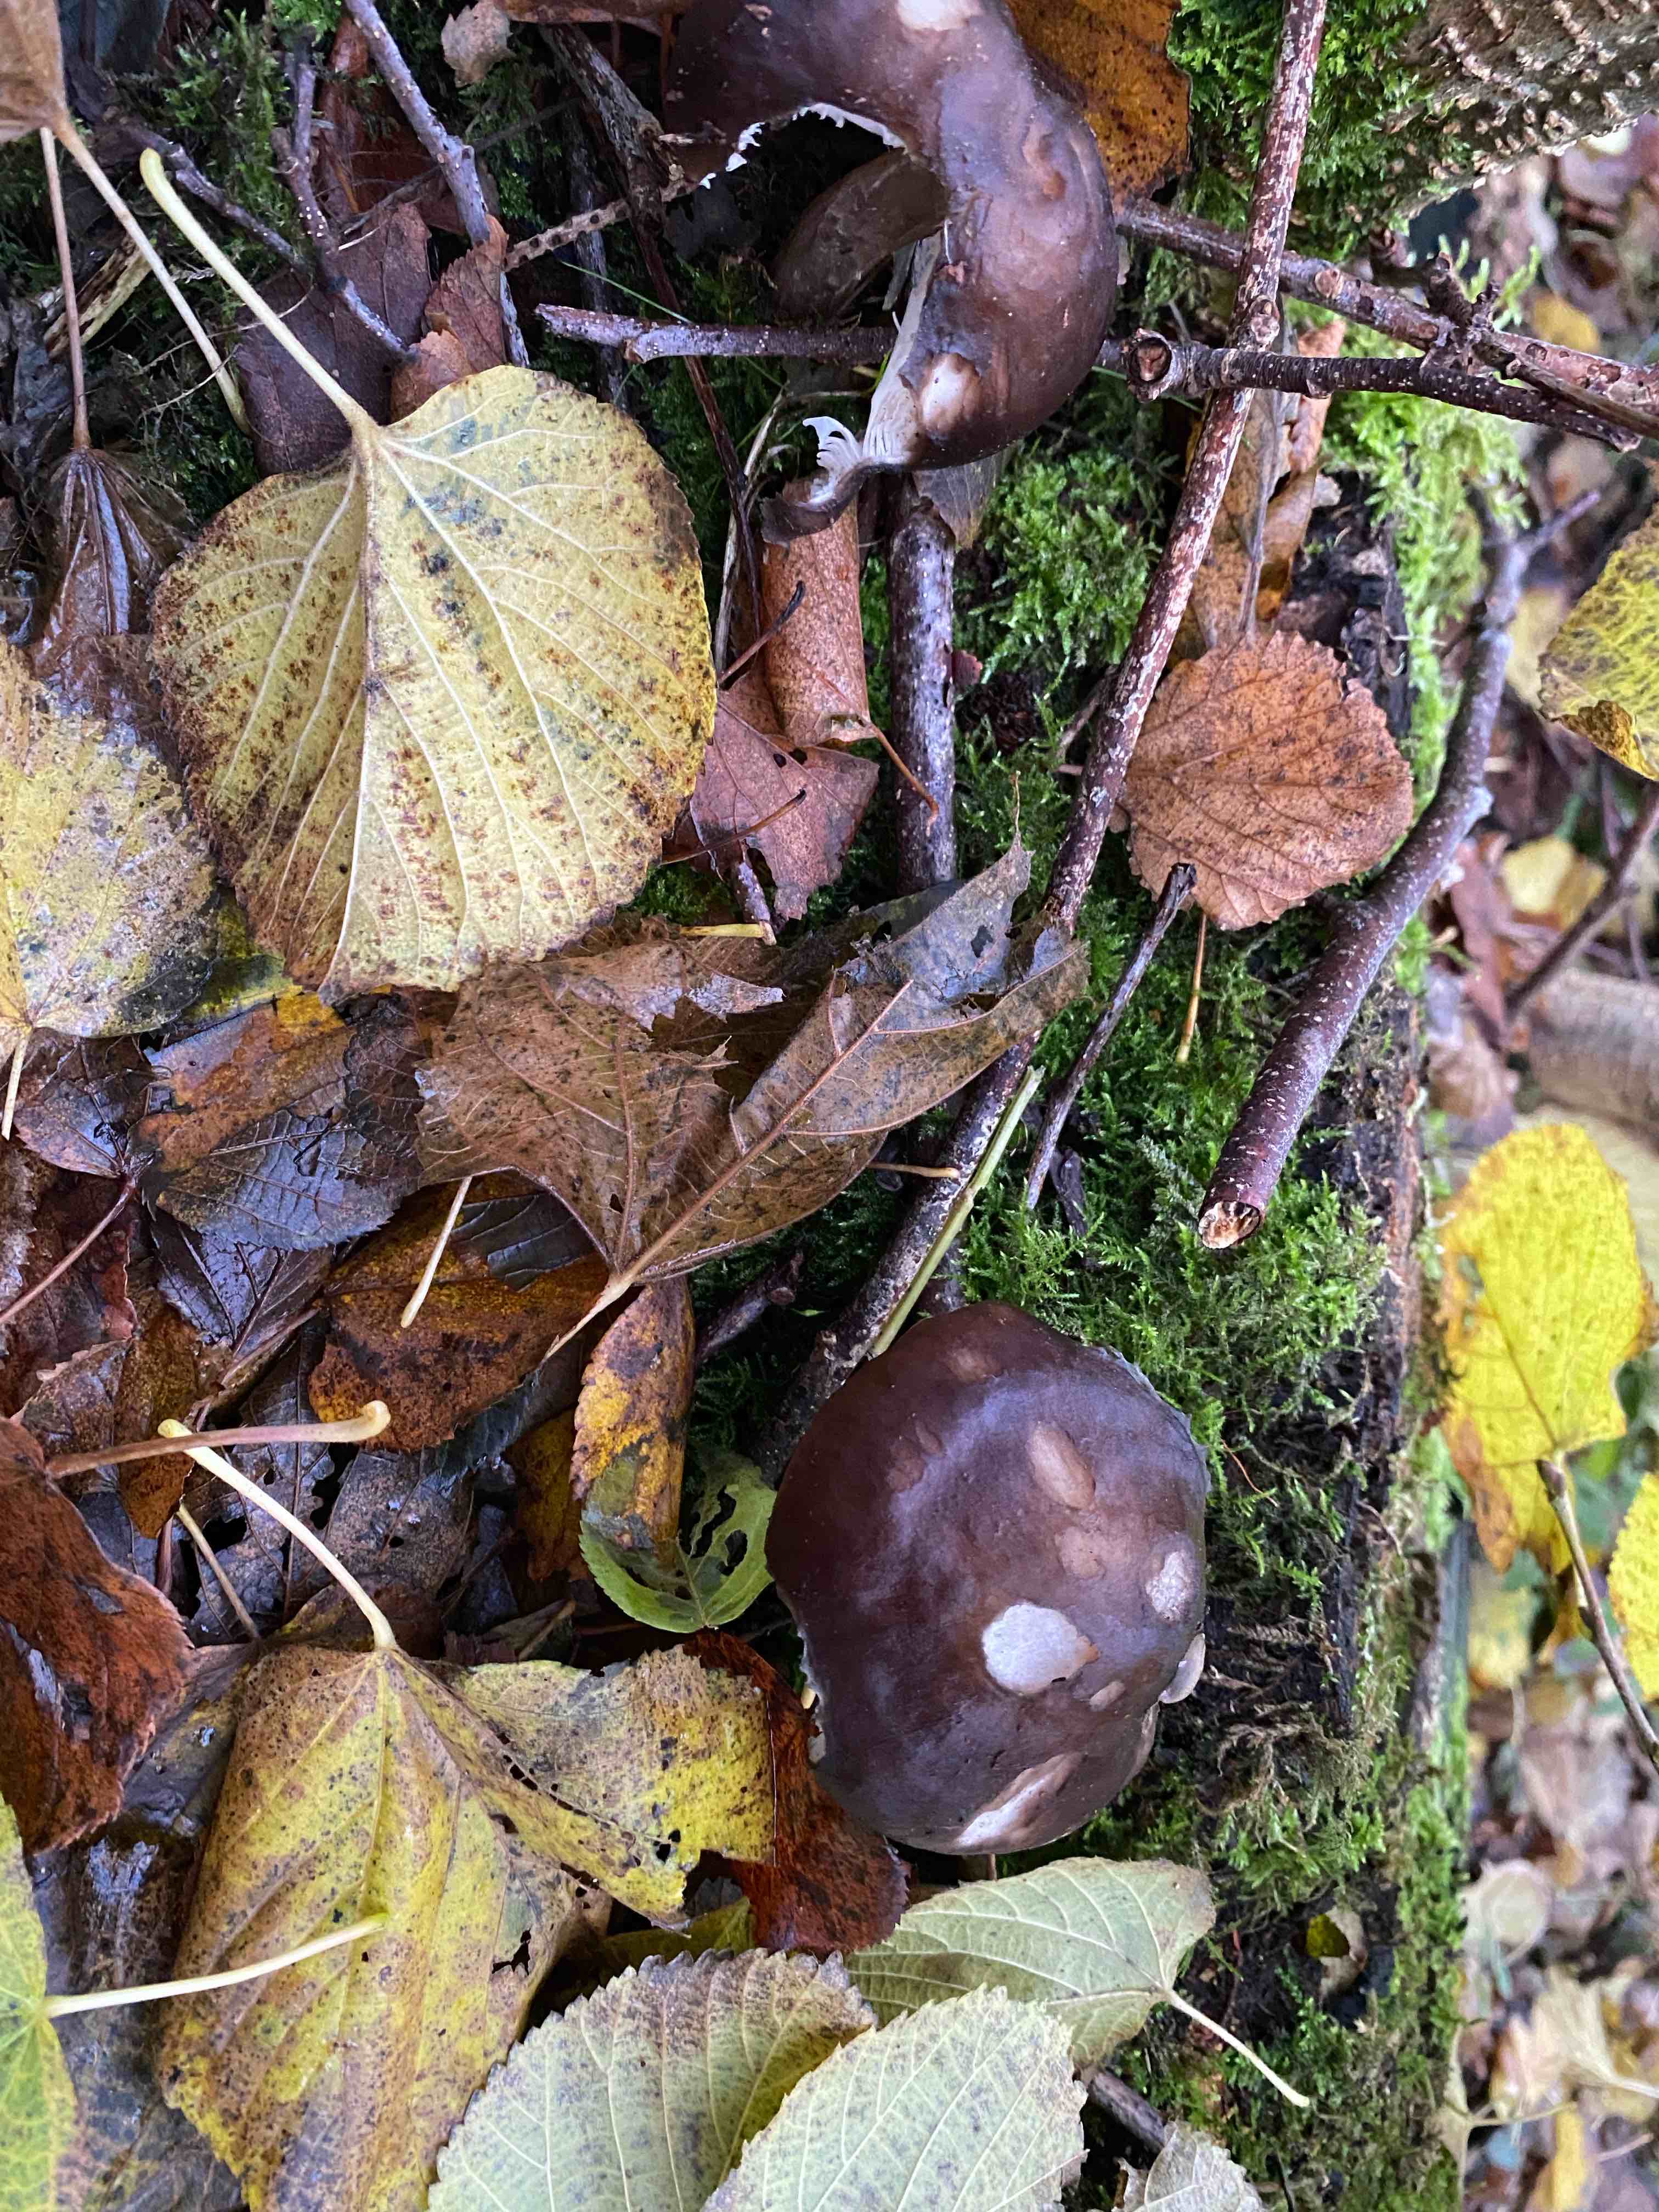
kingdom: Fungi
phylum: Basidiomycota
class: Agaricomycetes
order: Agaricales
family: Pluteaceae
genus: Pluteus
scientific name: Pluteus cervinus
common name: sodfarvet skærmhat
